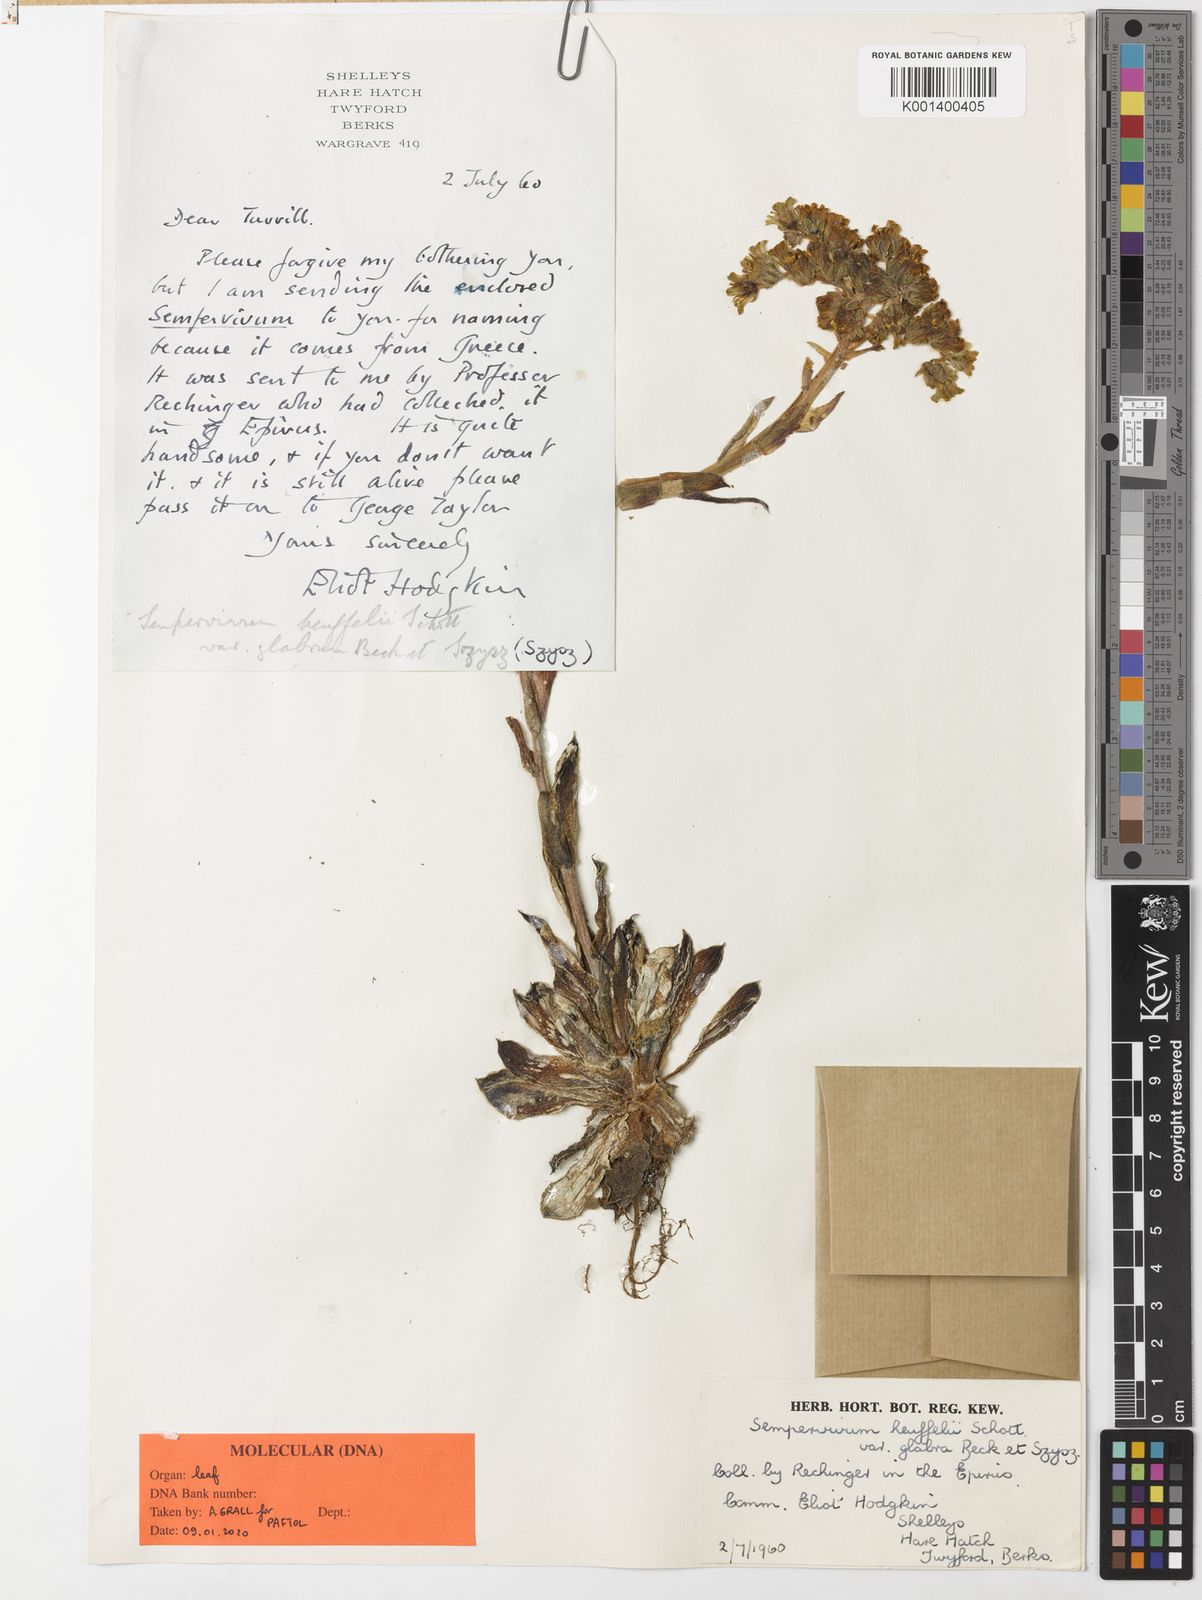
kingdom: Plantae
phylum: Tracheophyta
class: Magnoliopsida
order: Saxifragales
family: Crassulaceae
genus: Sempervivum
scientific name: Sempervivum heuffelii
